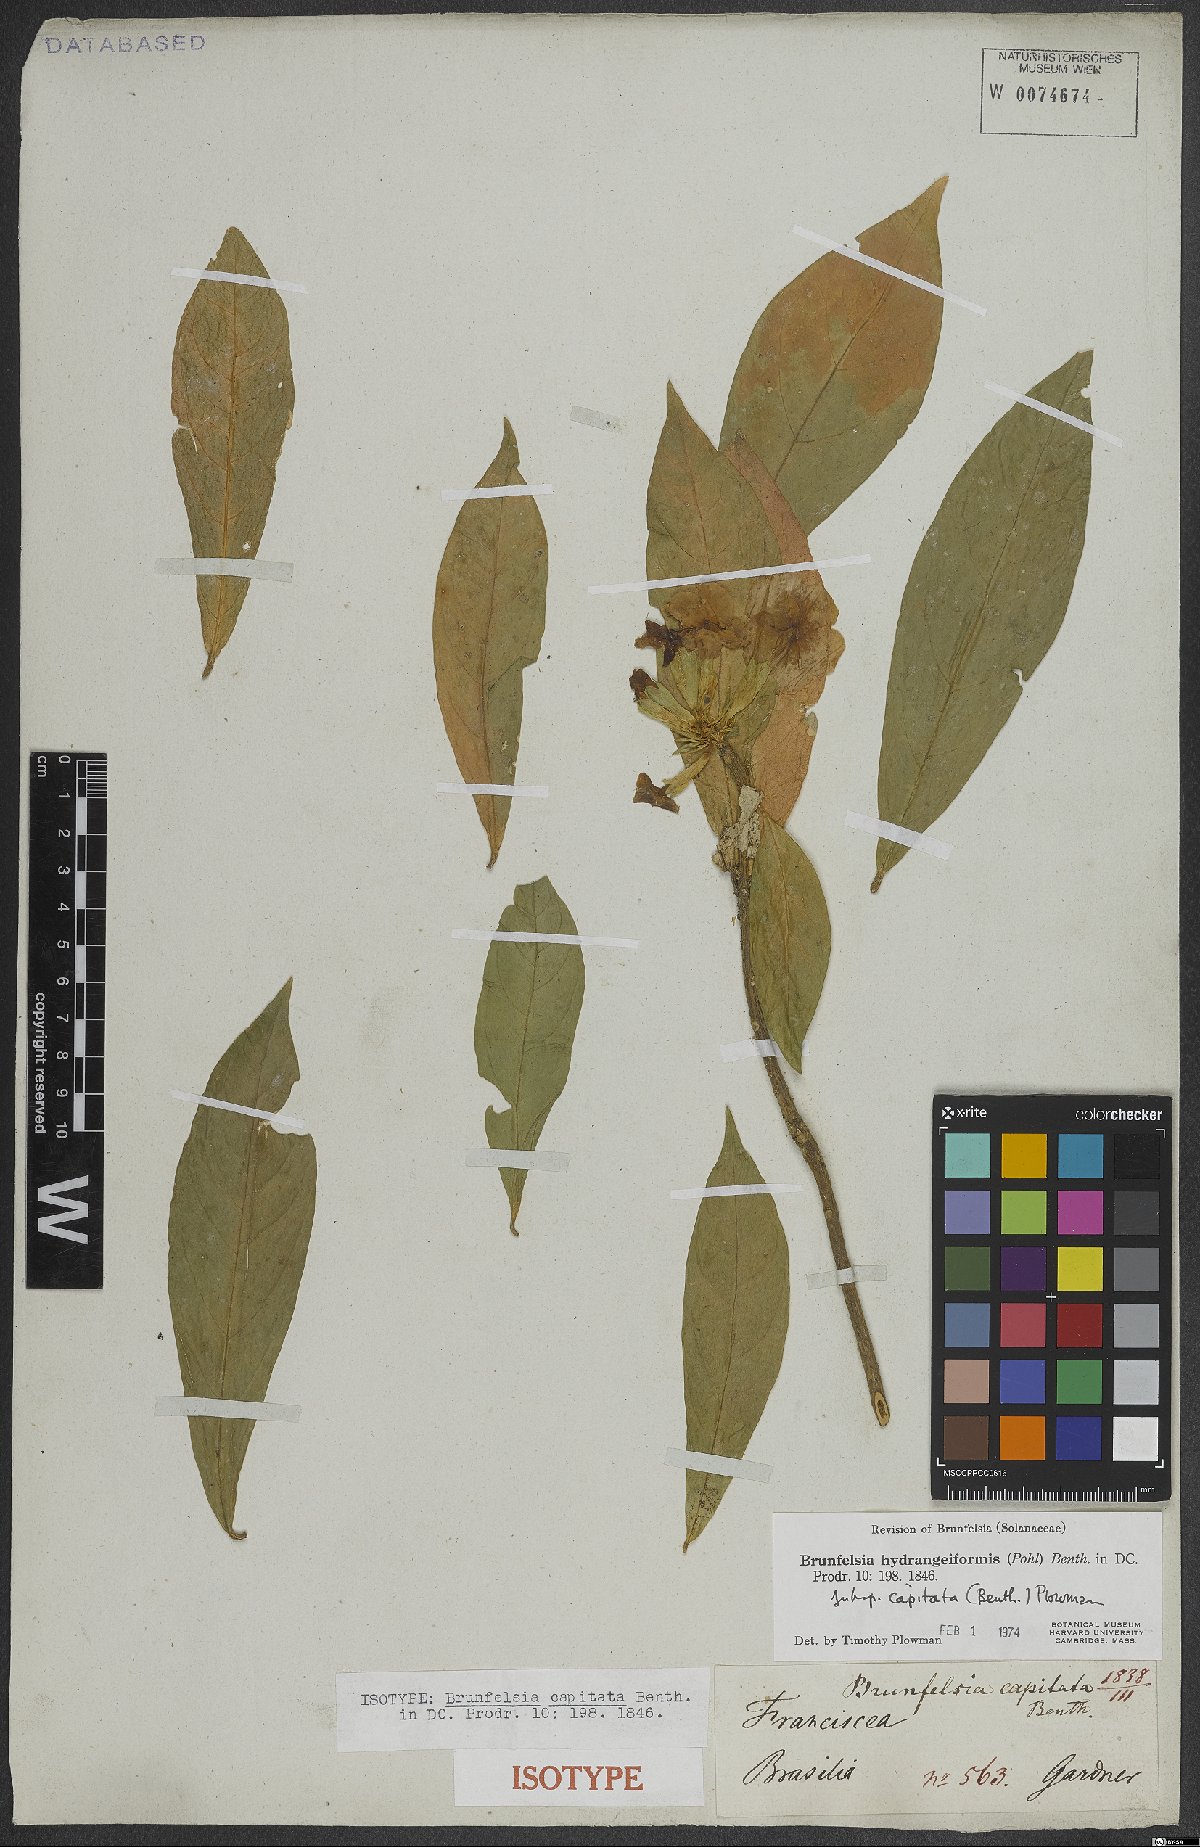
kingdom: Plantae
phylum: Tracheophyta
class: Magnoliopsida
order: Solanales
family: Solanaceae
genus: Brunfelsia
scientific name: Brunfelsia hydrangeiformis
